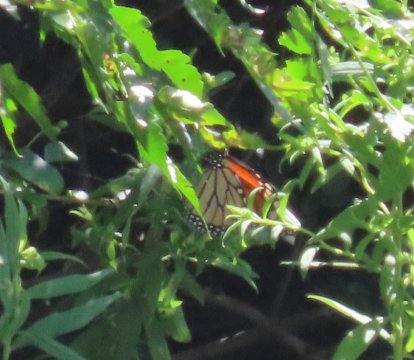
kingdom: Animalia
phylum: Arthropoda
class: Insecta
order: Lepidoptera
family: Nymphalidae
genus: Danaus
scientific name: Danaus plexippus
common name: Monarch
